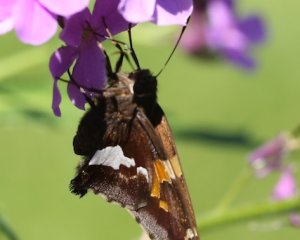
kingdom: Animalia
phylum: Arthropoda
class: Insecta
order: Lepidoptera
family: Hesperiidae
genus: Epargyreus
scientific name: Epargyreus clarus
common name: Silver-spotted Skipper
